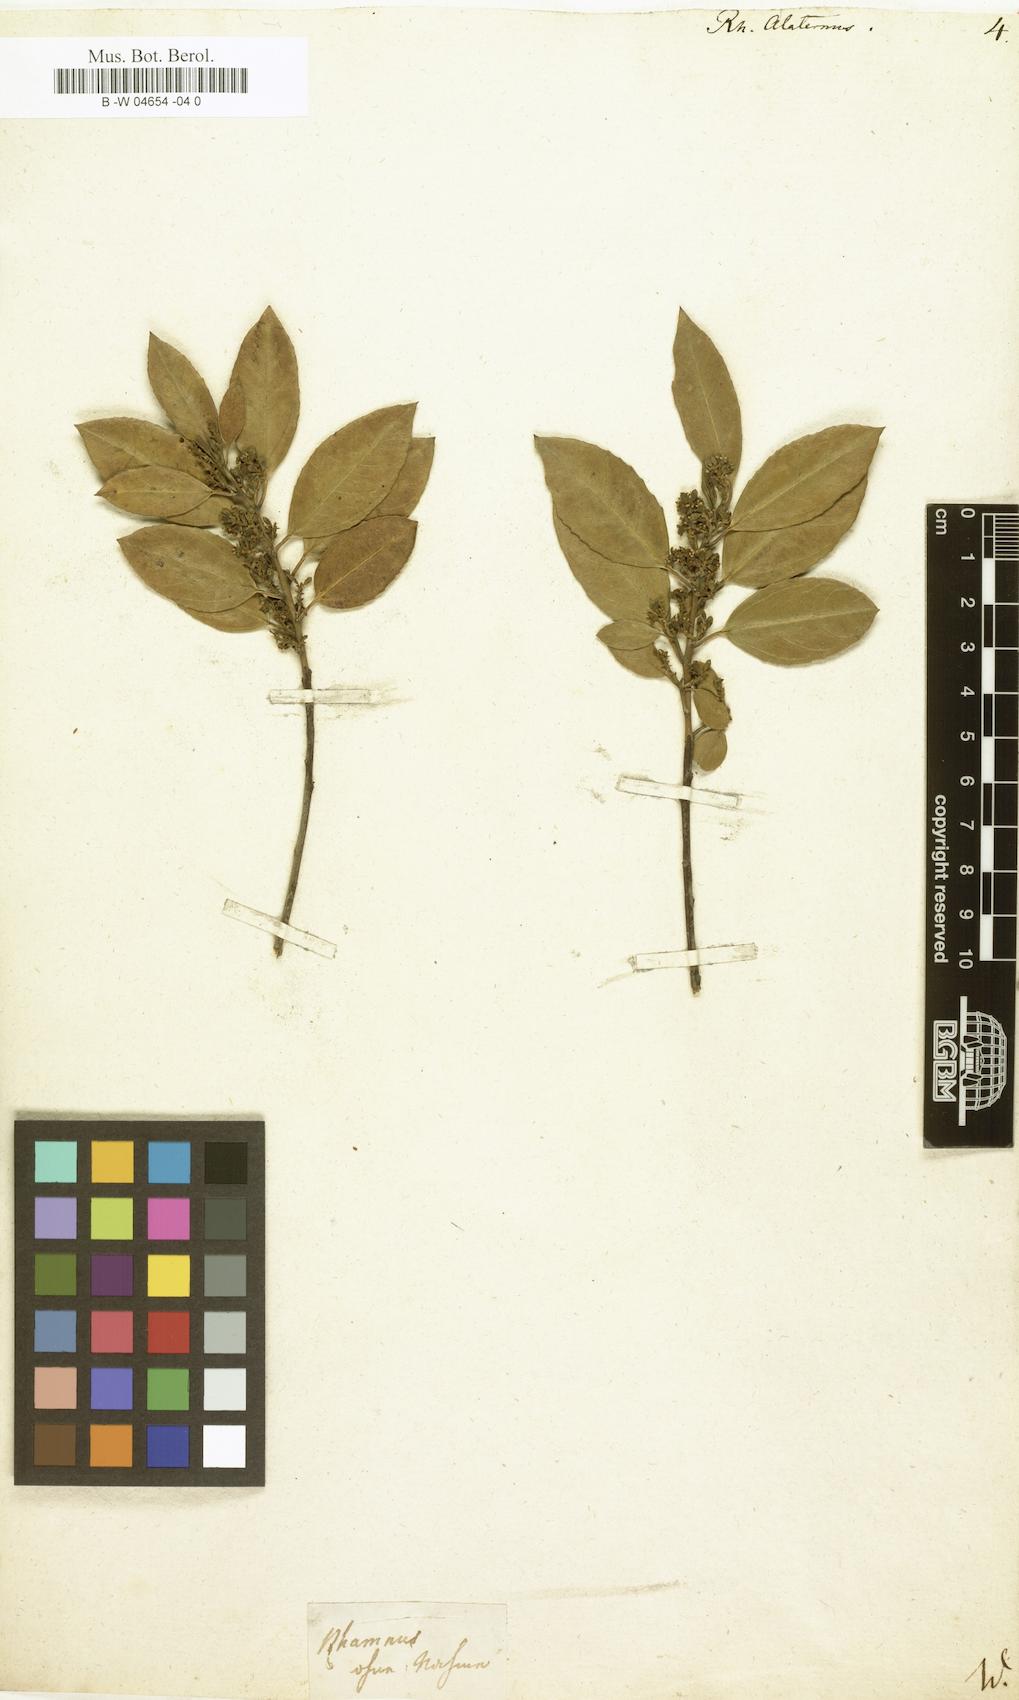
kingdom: Plantae
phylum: Tracheophyta
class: Magnoliopsida
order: Rosales
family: Rhamnaceae
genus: Rhamnus
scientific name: Rhamnus alaternus
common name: Mediterranean buckthorn
